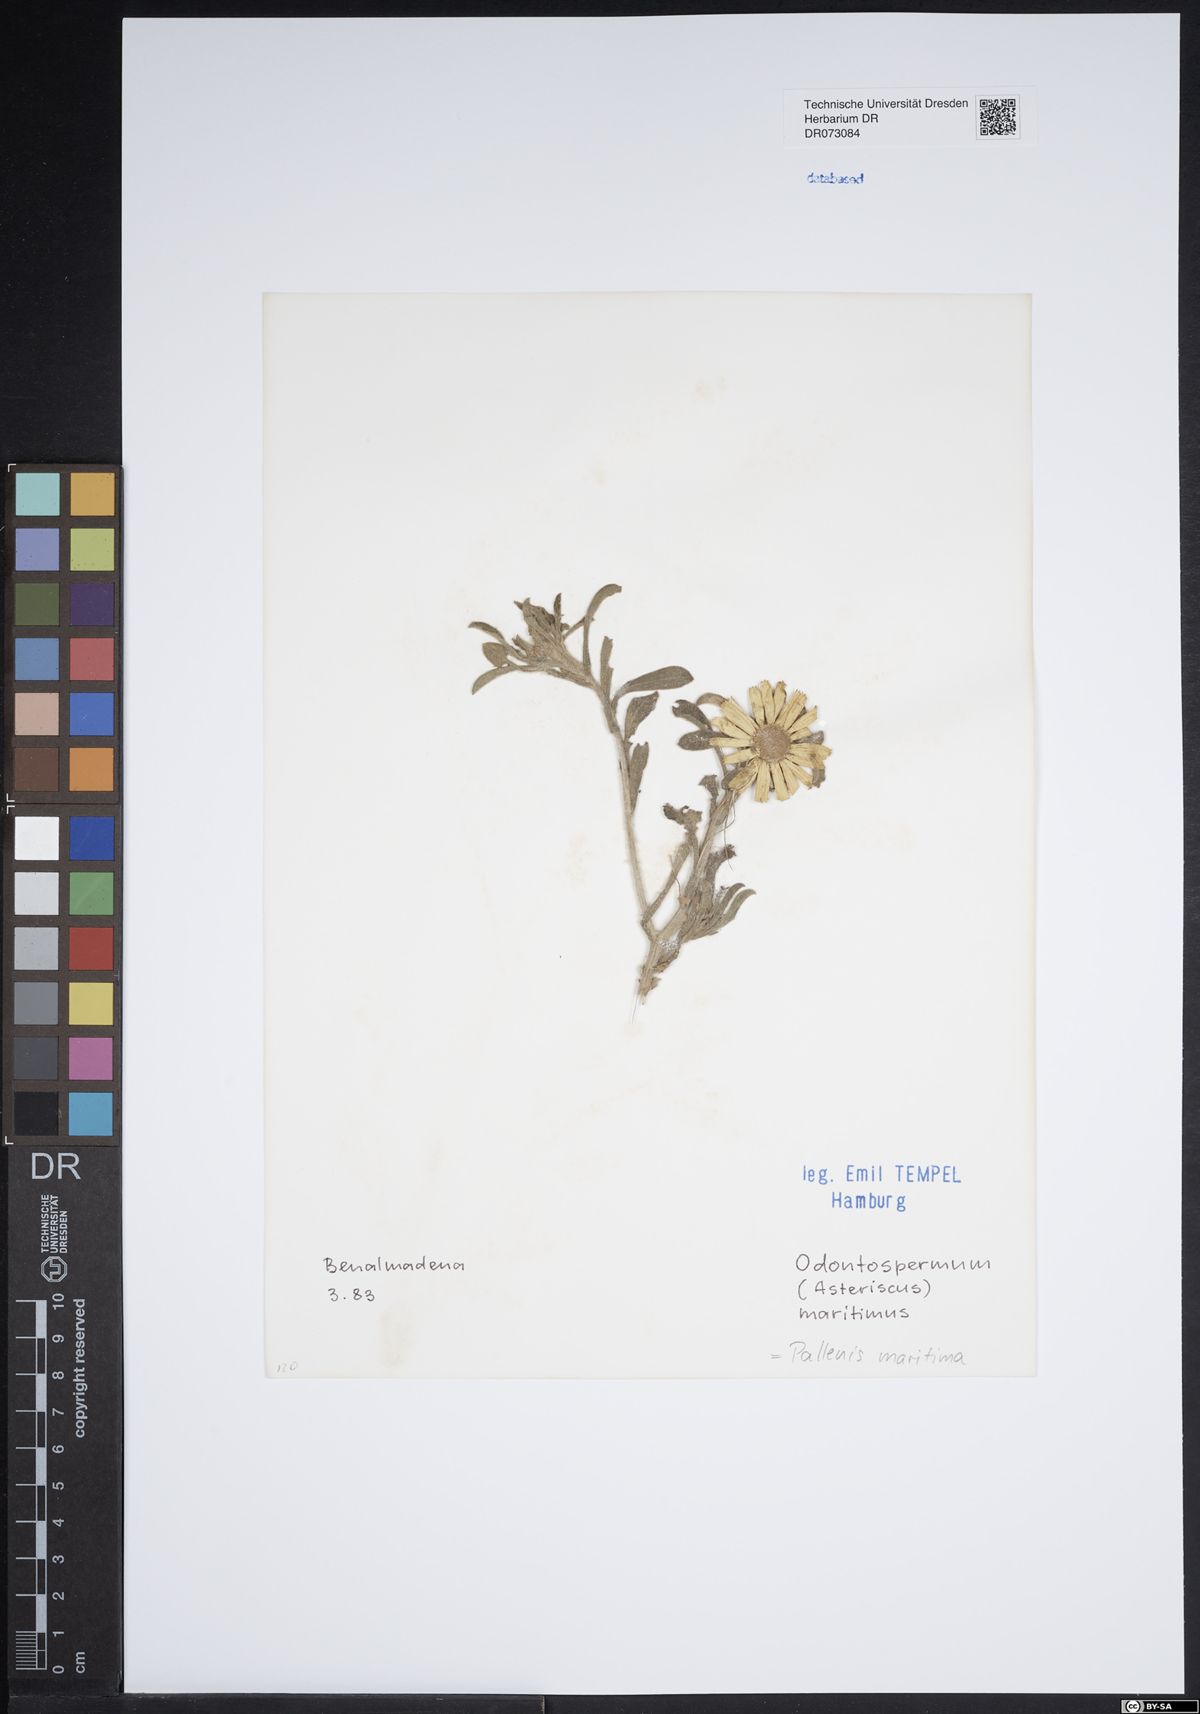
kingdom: Plantae
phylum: Tracheophyta
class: Magnoliopsida
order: Asterales
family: Asteraceae
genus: Centaurea
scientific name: Centaurea solstitialis
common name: Yellow star-thistle
